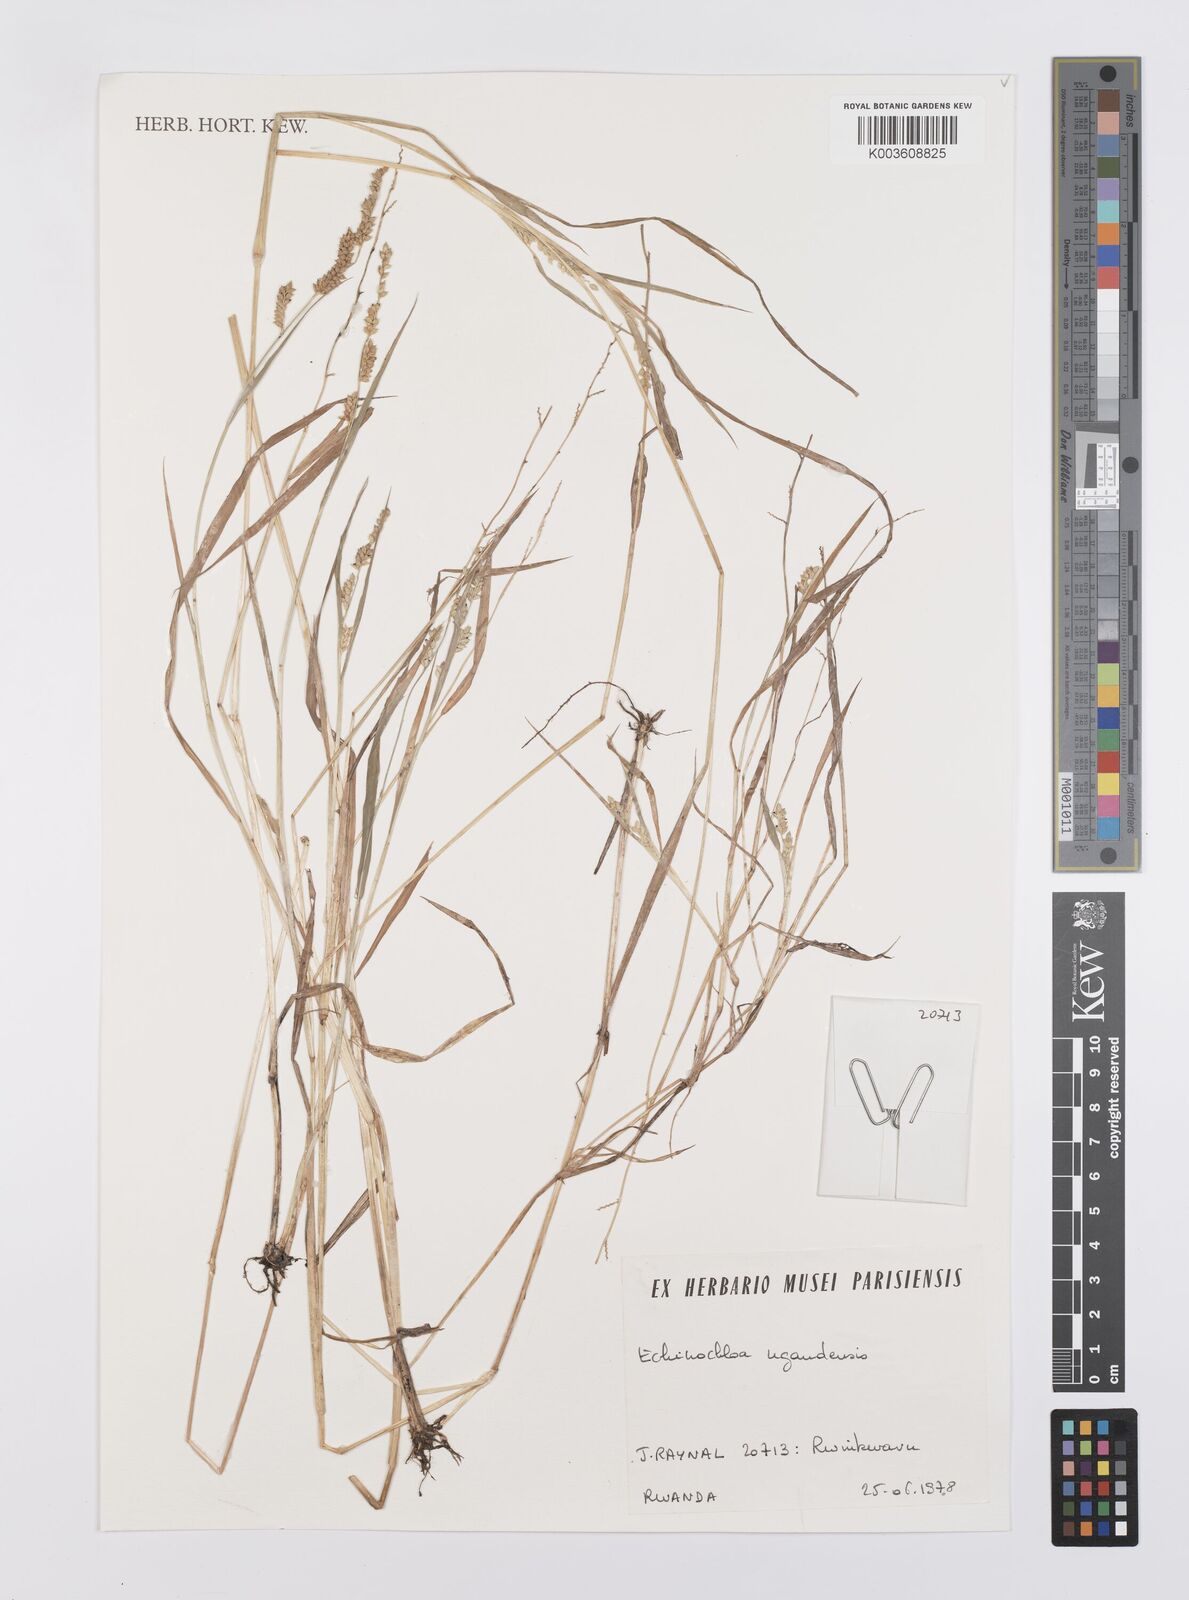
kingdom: Plantae
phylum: Tracheophyta
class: Liliopsida
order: Poales
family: Poaceae
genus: Echinochloa
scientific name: Echinochloa ugandensis
